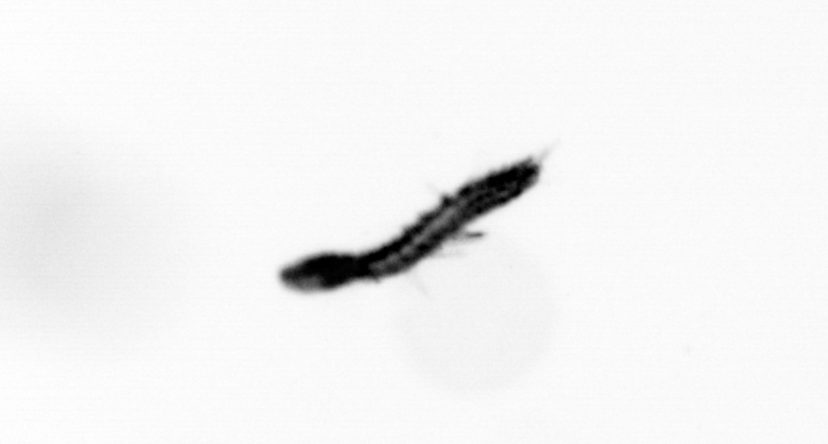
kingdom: Animalia
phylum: Annelida
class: Polychaeta
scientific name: Polychaeta
